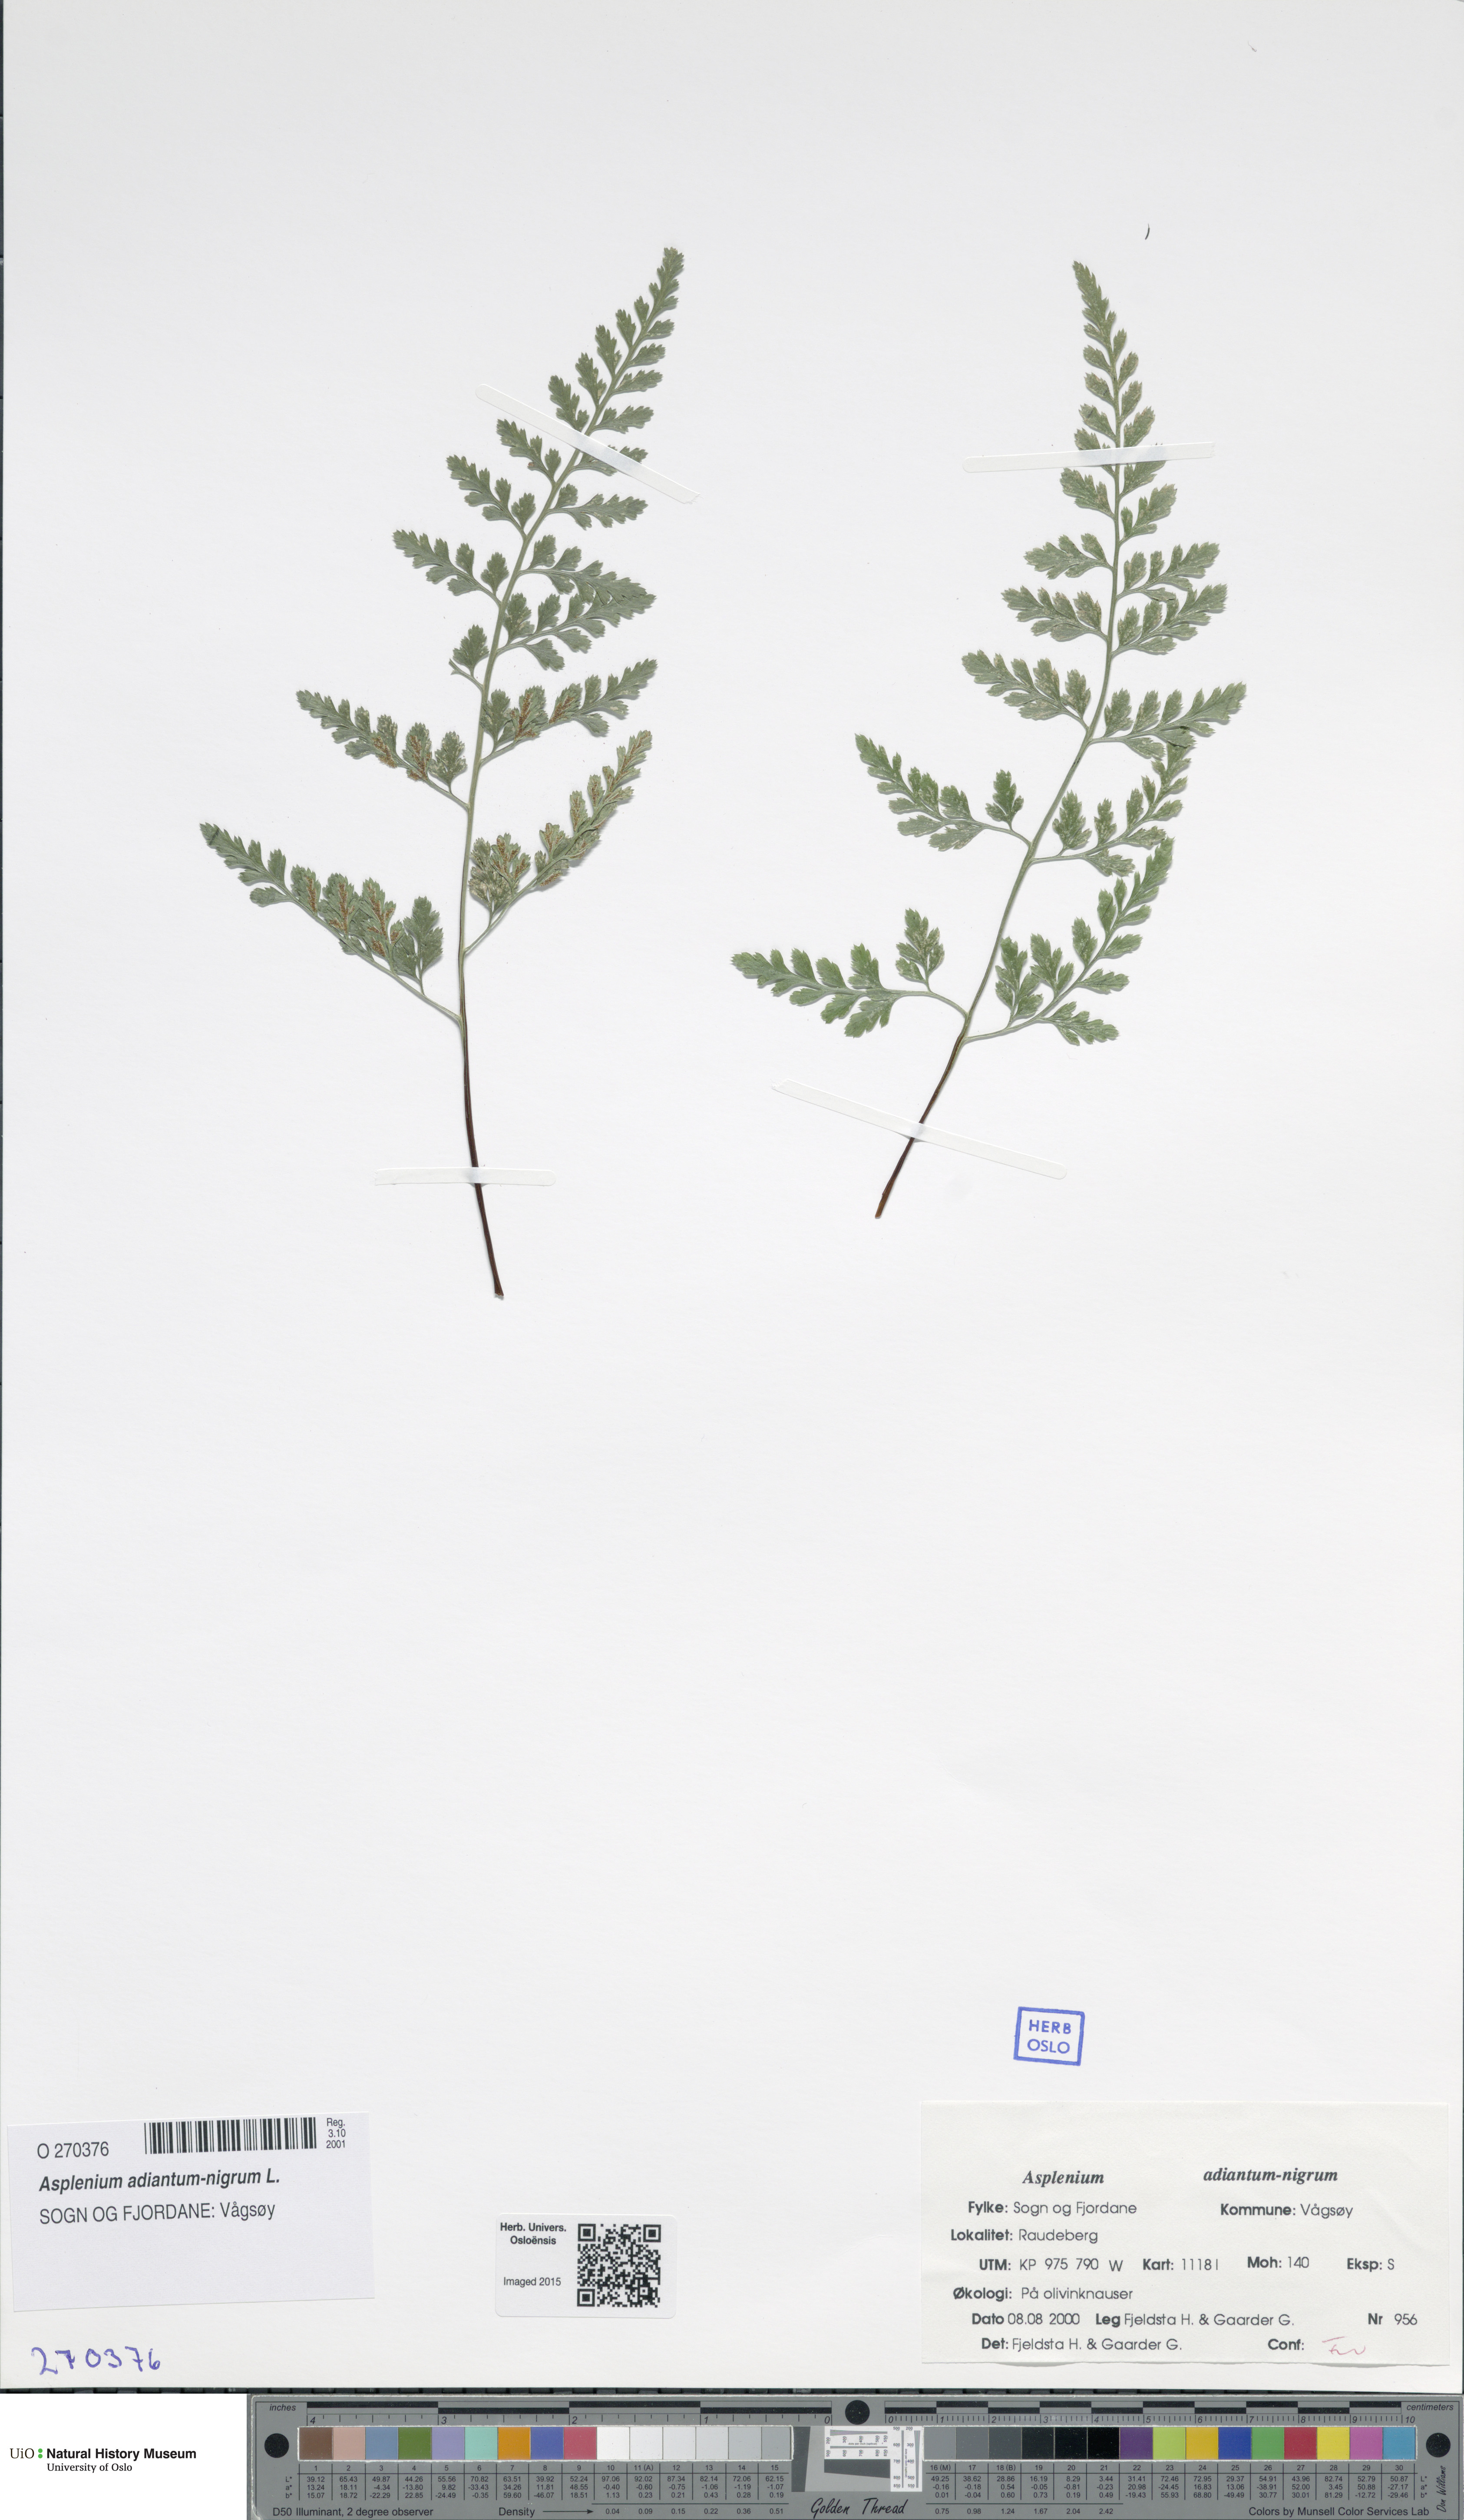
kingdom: Plantae
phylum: Tracheophyta
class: Polypodiopsida
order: Polypodiales
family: Aspleniaceae
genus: Asplenium
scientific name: Asplenium adiantum-nigrum
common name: Black spleenwort
